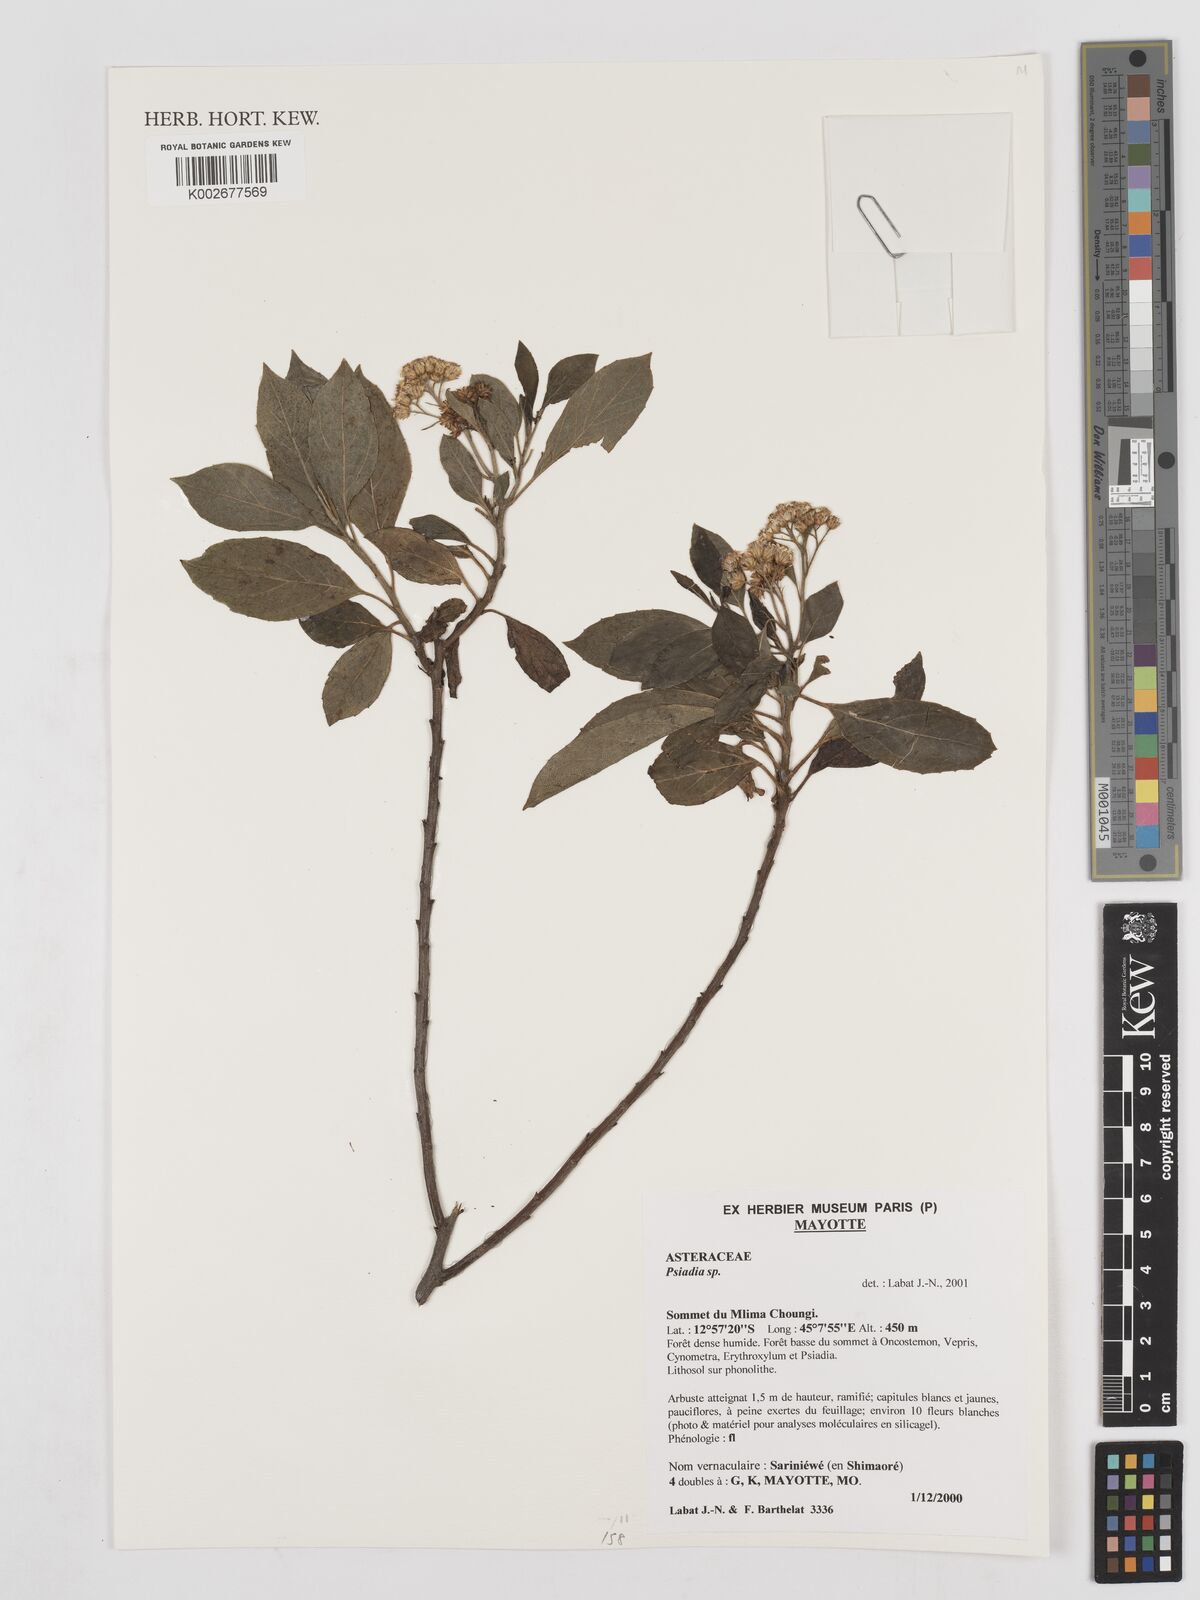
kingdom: Plantae
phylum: Tracheophyta
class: Magnoliopsida
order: Asterales
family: Asteraceae
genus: Psiadia
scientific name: Psiadia
